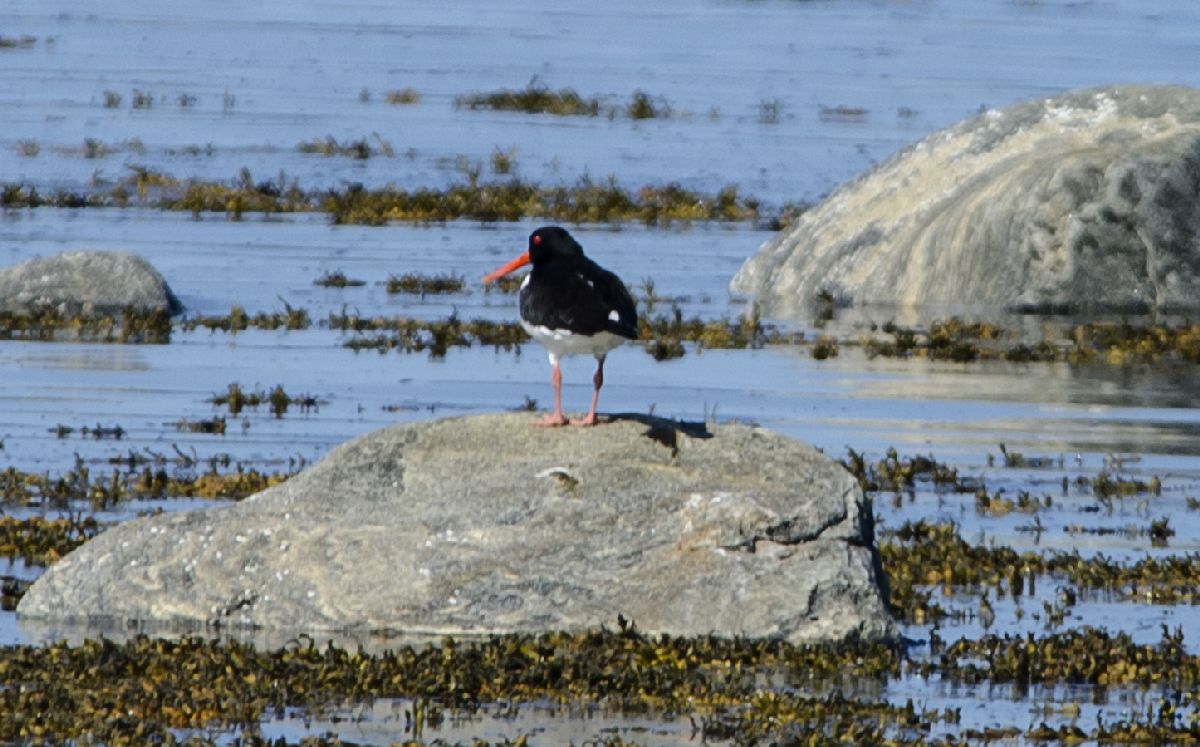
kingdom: Animalia
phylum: Chordata
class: Aves
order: Charadriiformes
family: Haematopodidae
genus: Haematopus
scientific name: Haematopus ostralegus
